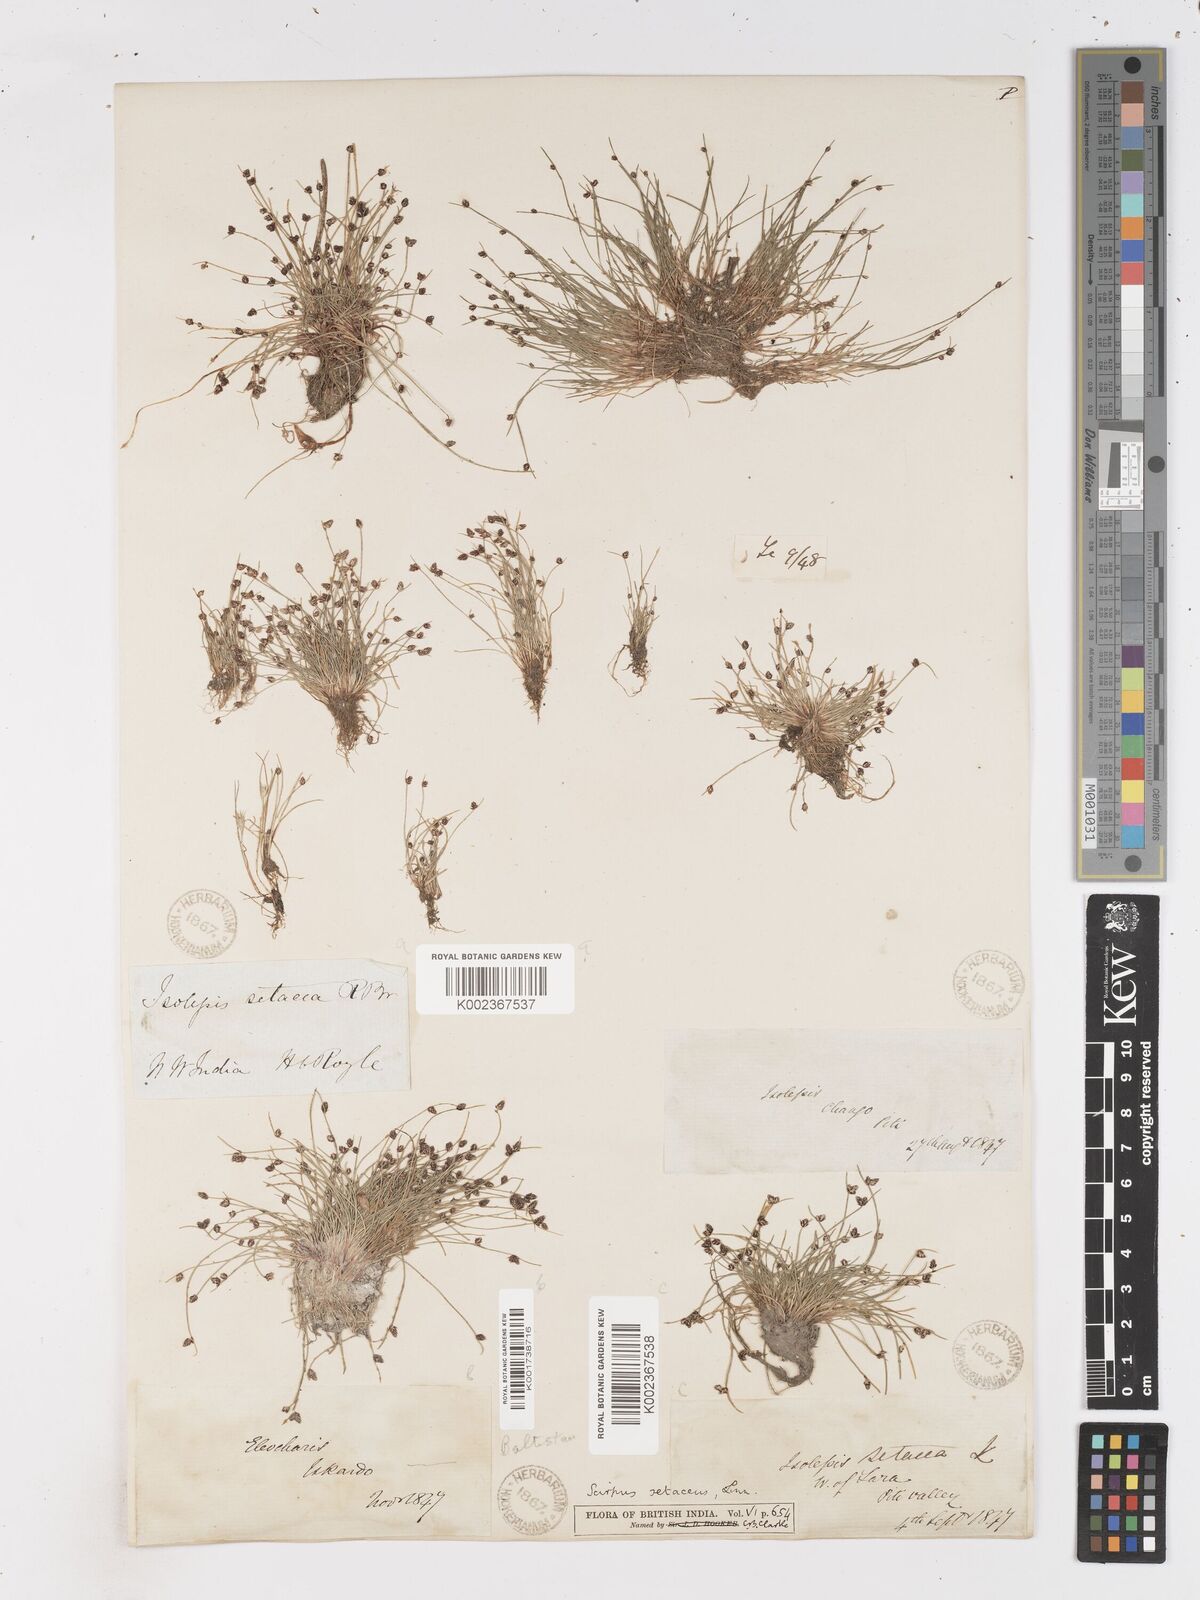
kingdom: Plantae
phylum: Tracheophyta
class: Liliopsida
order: Poales
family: Cyperaceae
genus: Isolepis
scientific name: Isolepis setacea
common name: Bristle club-rush
